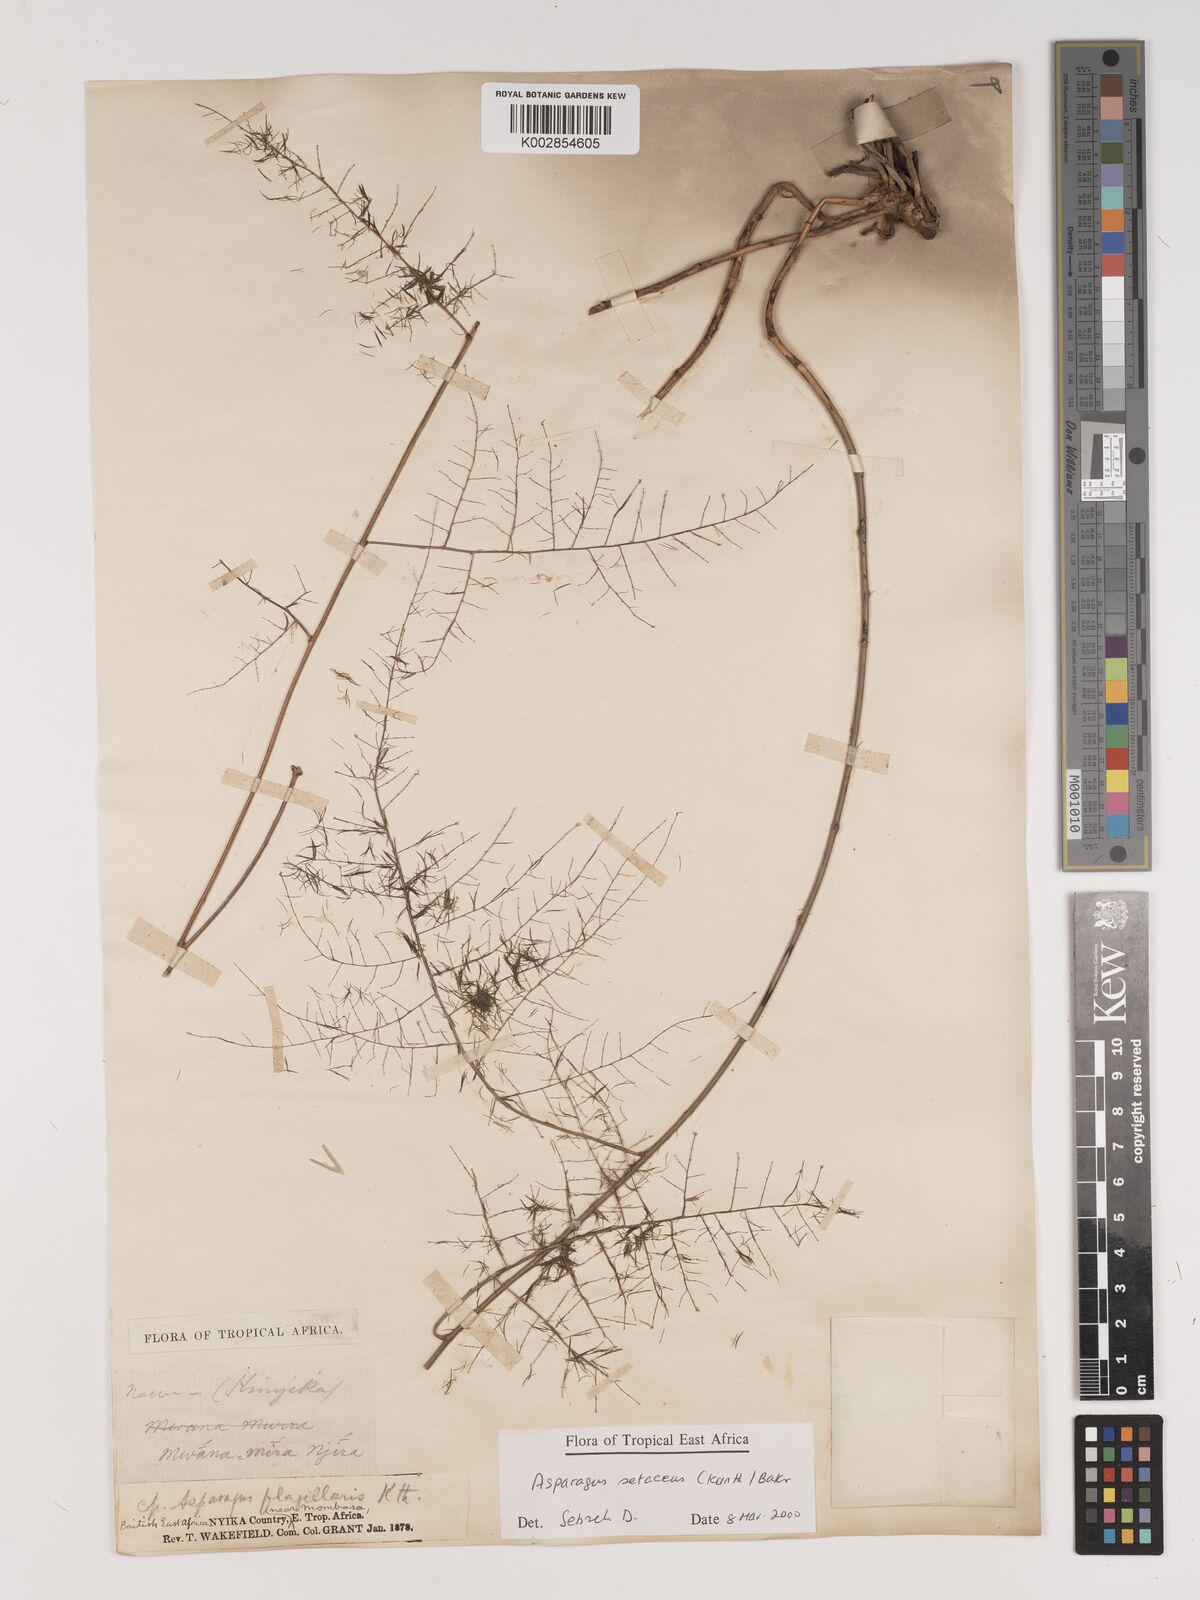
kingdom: Plantae
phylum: Tracheophyta
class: Liliopsida
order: Asparagales
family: Asparagaceae
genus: Asparagus
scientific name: Asparagus setaceus
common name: Common asparagus fern
